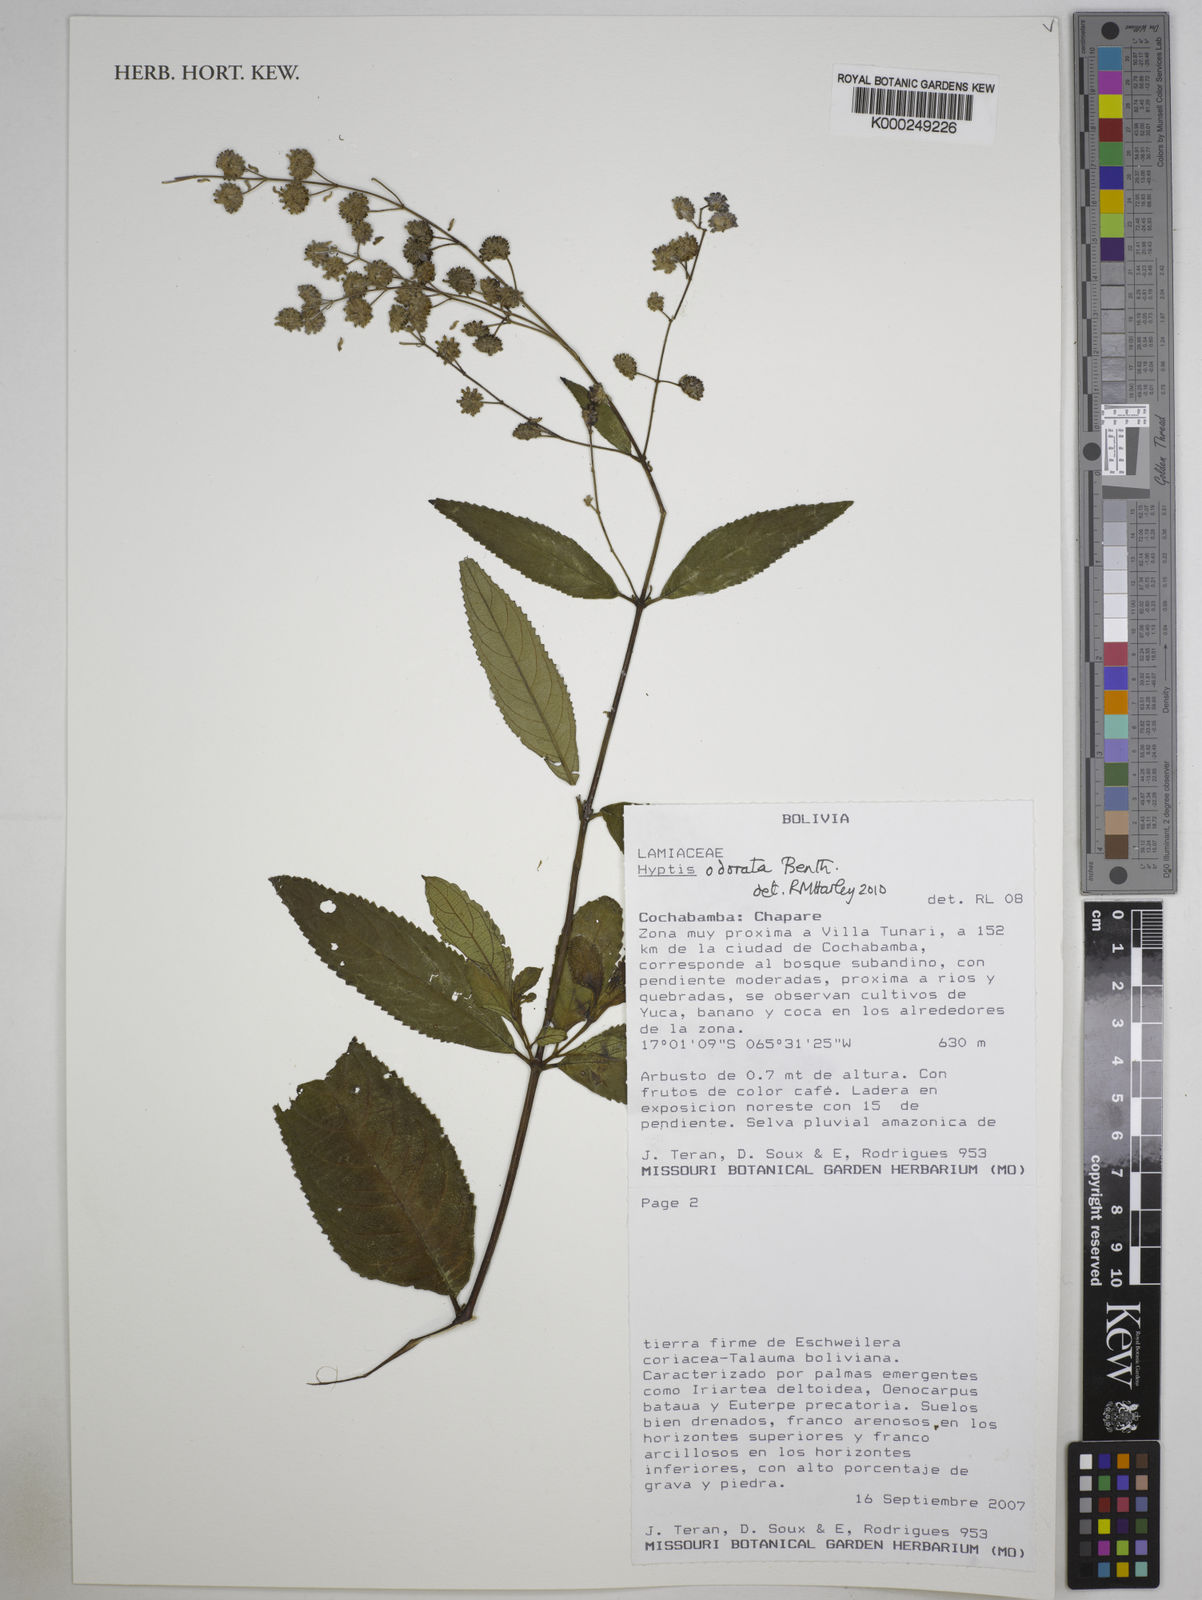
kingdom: Plantae
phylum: Tracheophyta
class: Magnoliopsida
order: Lamiales
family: Lamiaceae
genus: Hyptis
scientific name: Hyptis odorata
